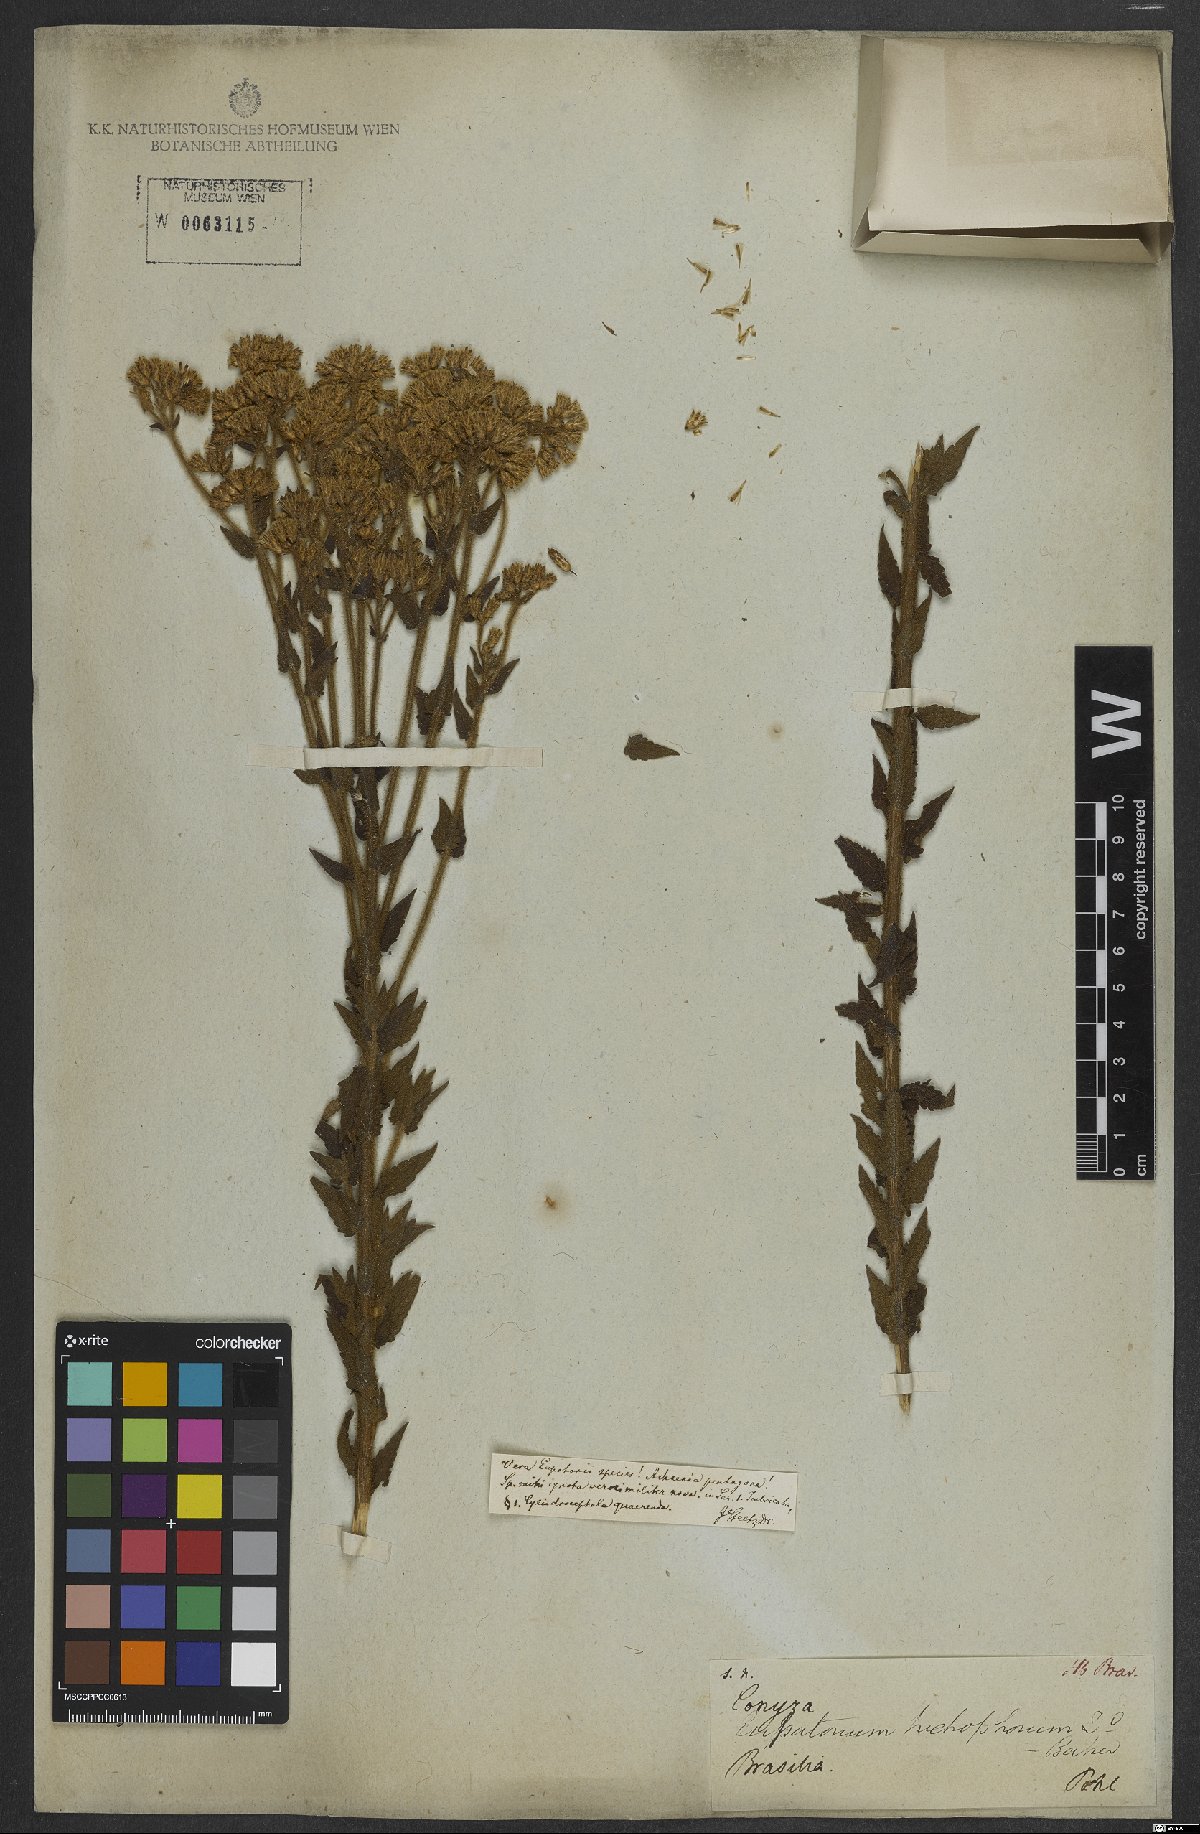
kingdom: Plantae
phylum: Tracheophyta
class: Magnoliopsida
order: Asterales
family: Asteraceae
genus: Chromolaena
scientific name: Chromolaena hirsuta
